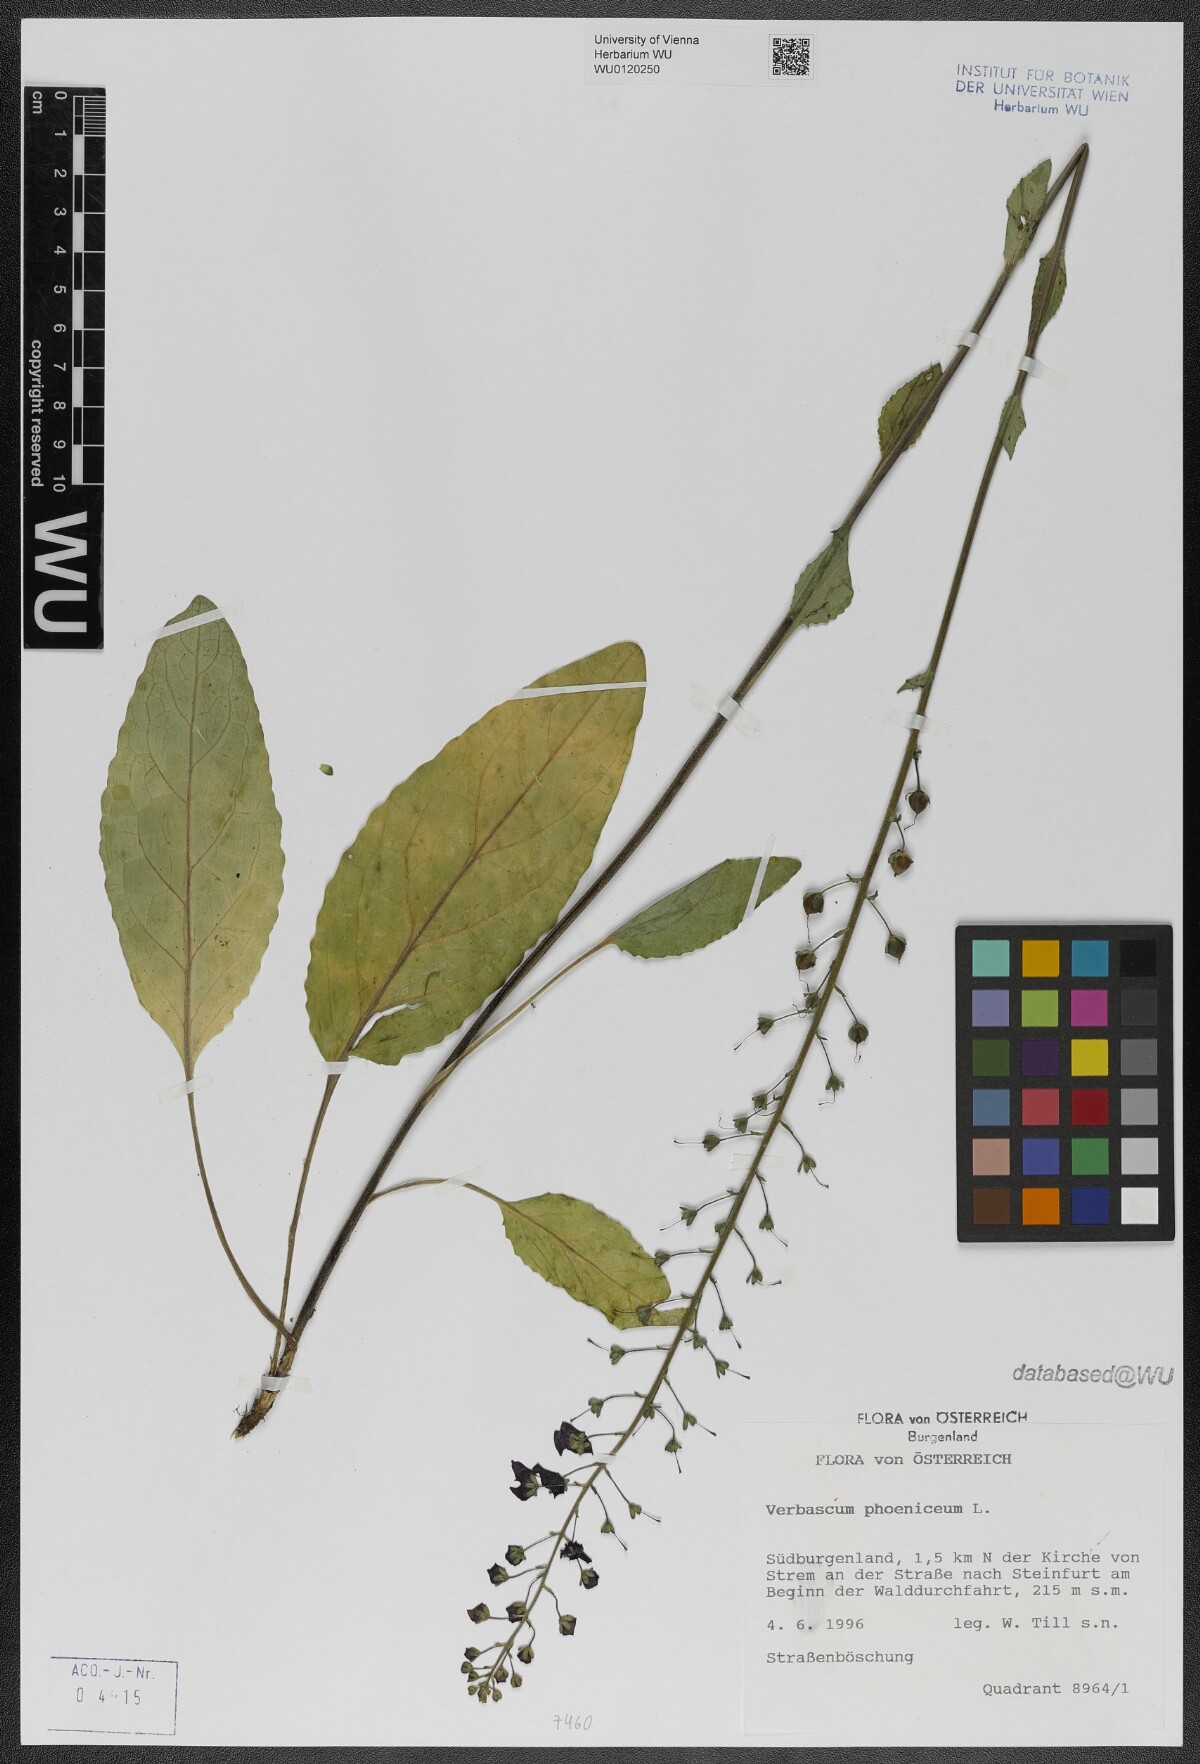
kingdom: Plantae
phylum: Tracheophyta
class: Magnoliopsida
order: Lamiales
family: Scrophulariaceae
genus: Verbascum
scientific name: Verbascum phoeniceum
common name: Purple mullein
